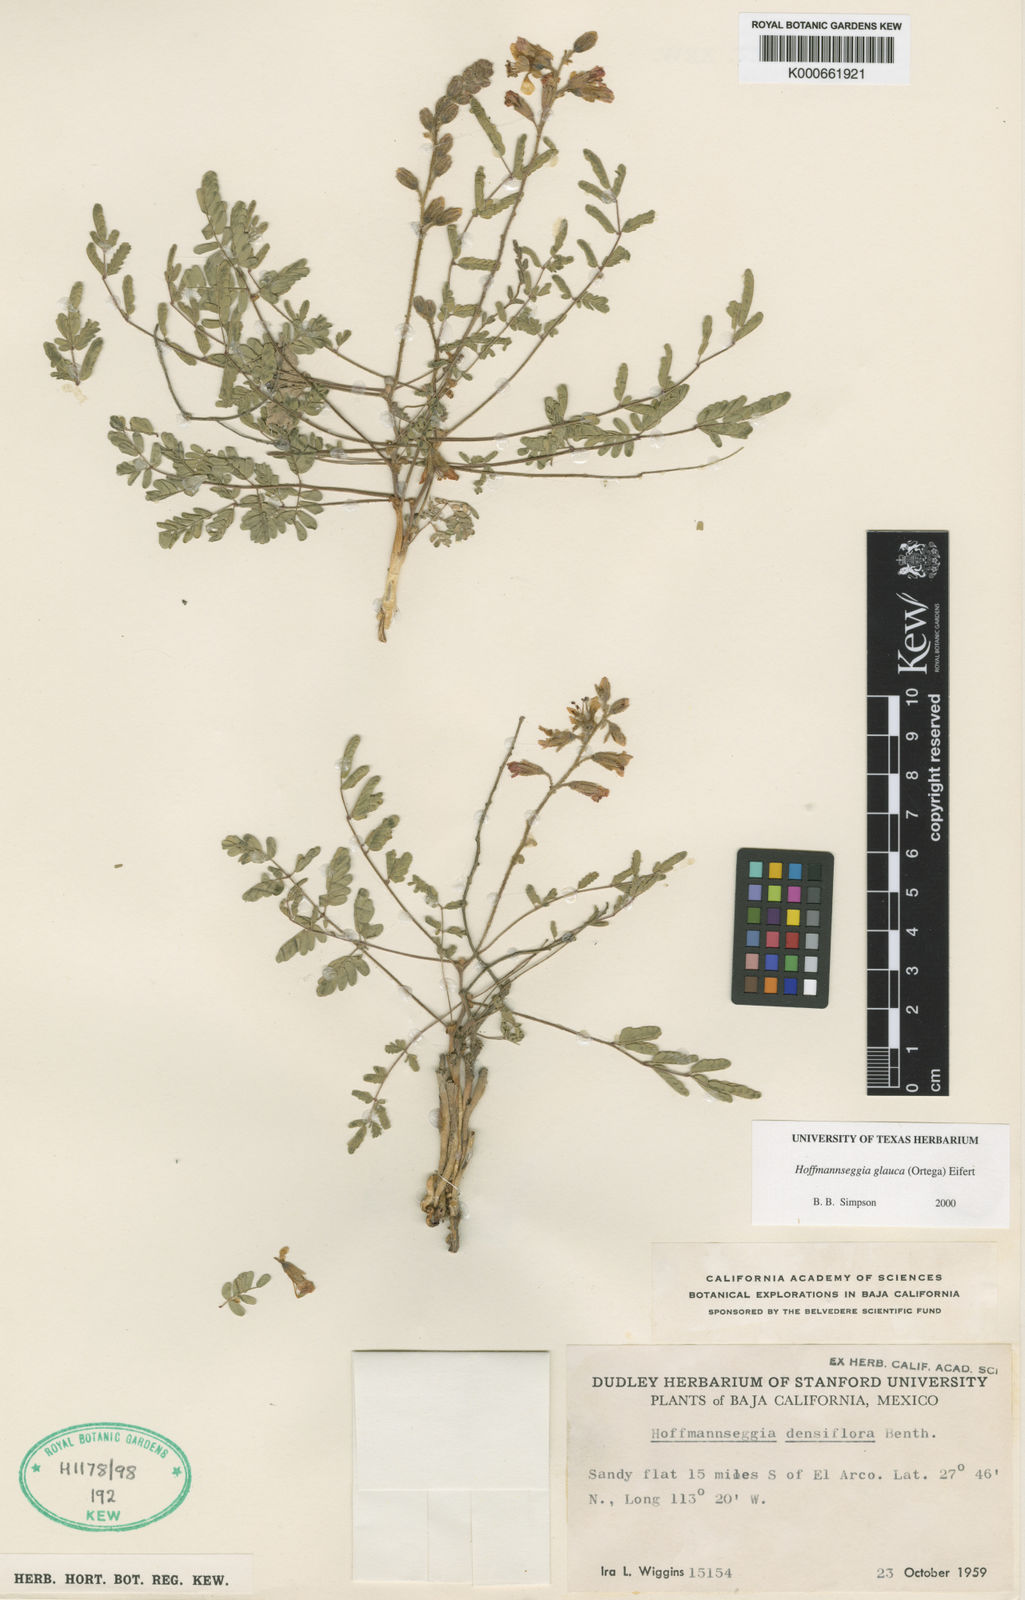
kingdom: Plantae
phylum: Tracheophyta
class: Magnoliopsida
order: Fabales
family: Fabaceae
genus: Hoffmannseggia
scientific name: Hoffmannseggia glauca
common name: Pignut
